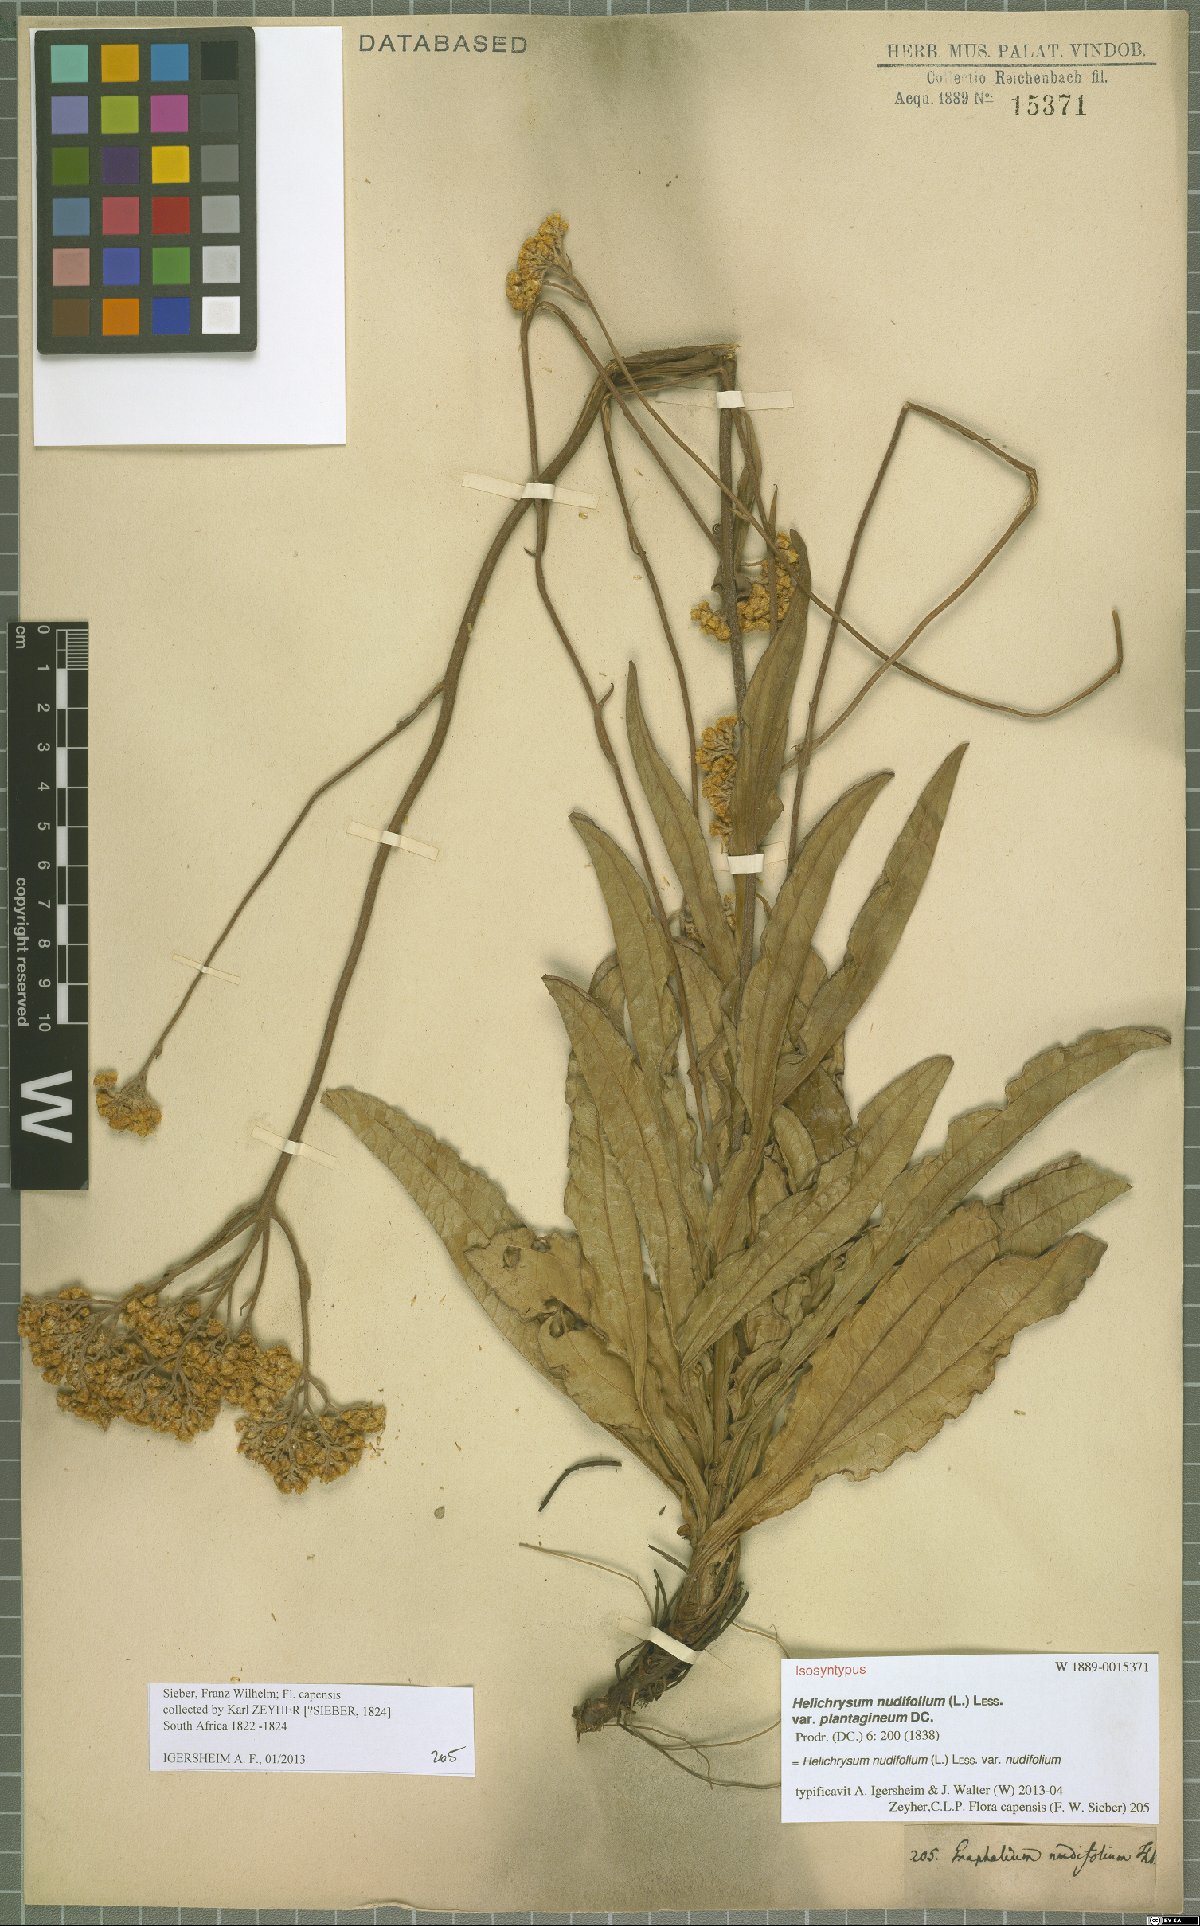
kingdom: Plantae
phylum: Tracheophyta
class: Magnoliopsida
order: Asterales
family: Asteraceae
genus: Helichrysum
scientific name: Helichrysum nudifolium
